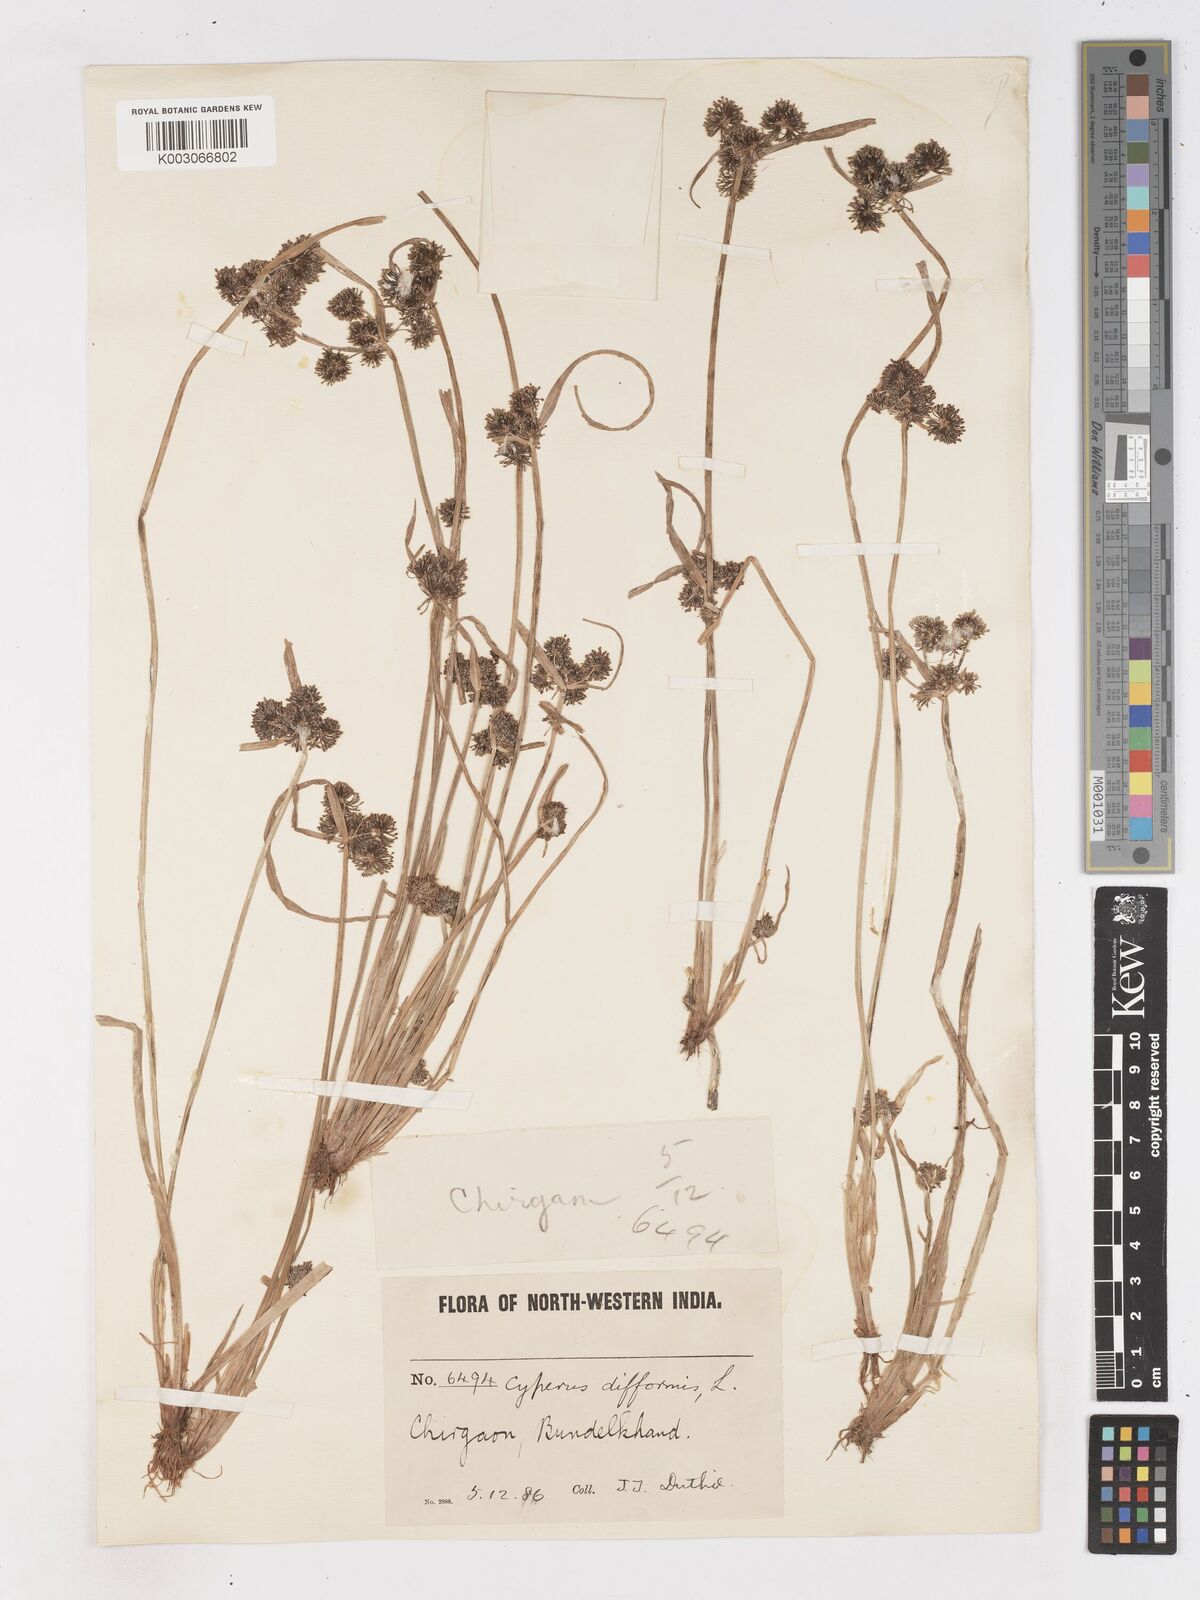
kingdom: Plantae
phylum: Tracheophyta
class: Liliopsida
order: Poales
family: Cyperaceae
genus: Cyperus
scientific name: Cyperus difformis
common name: Variable flatsedge
